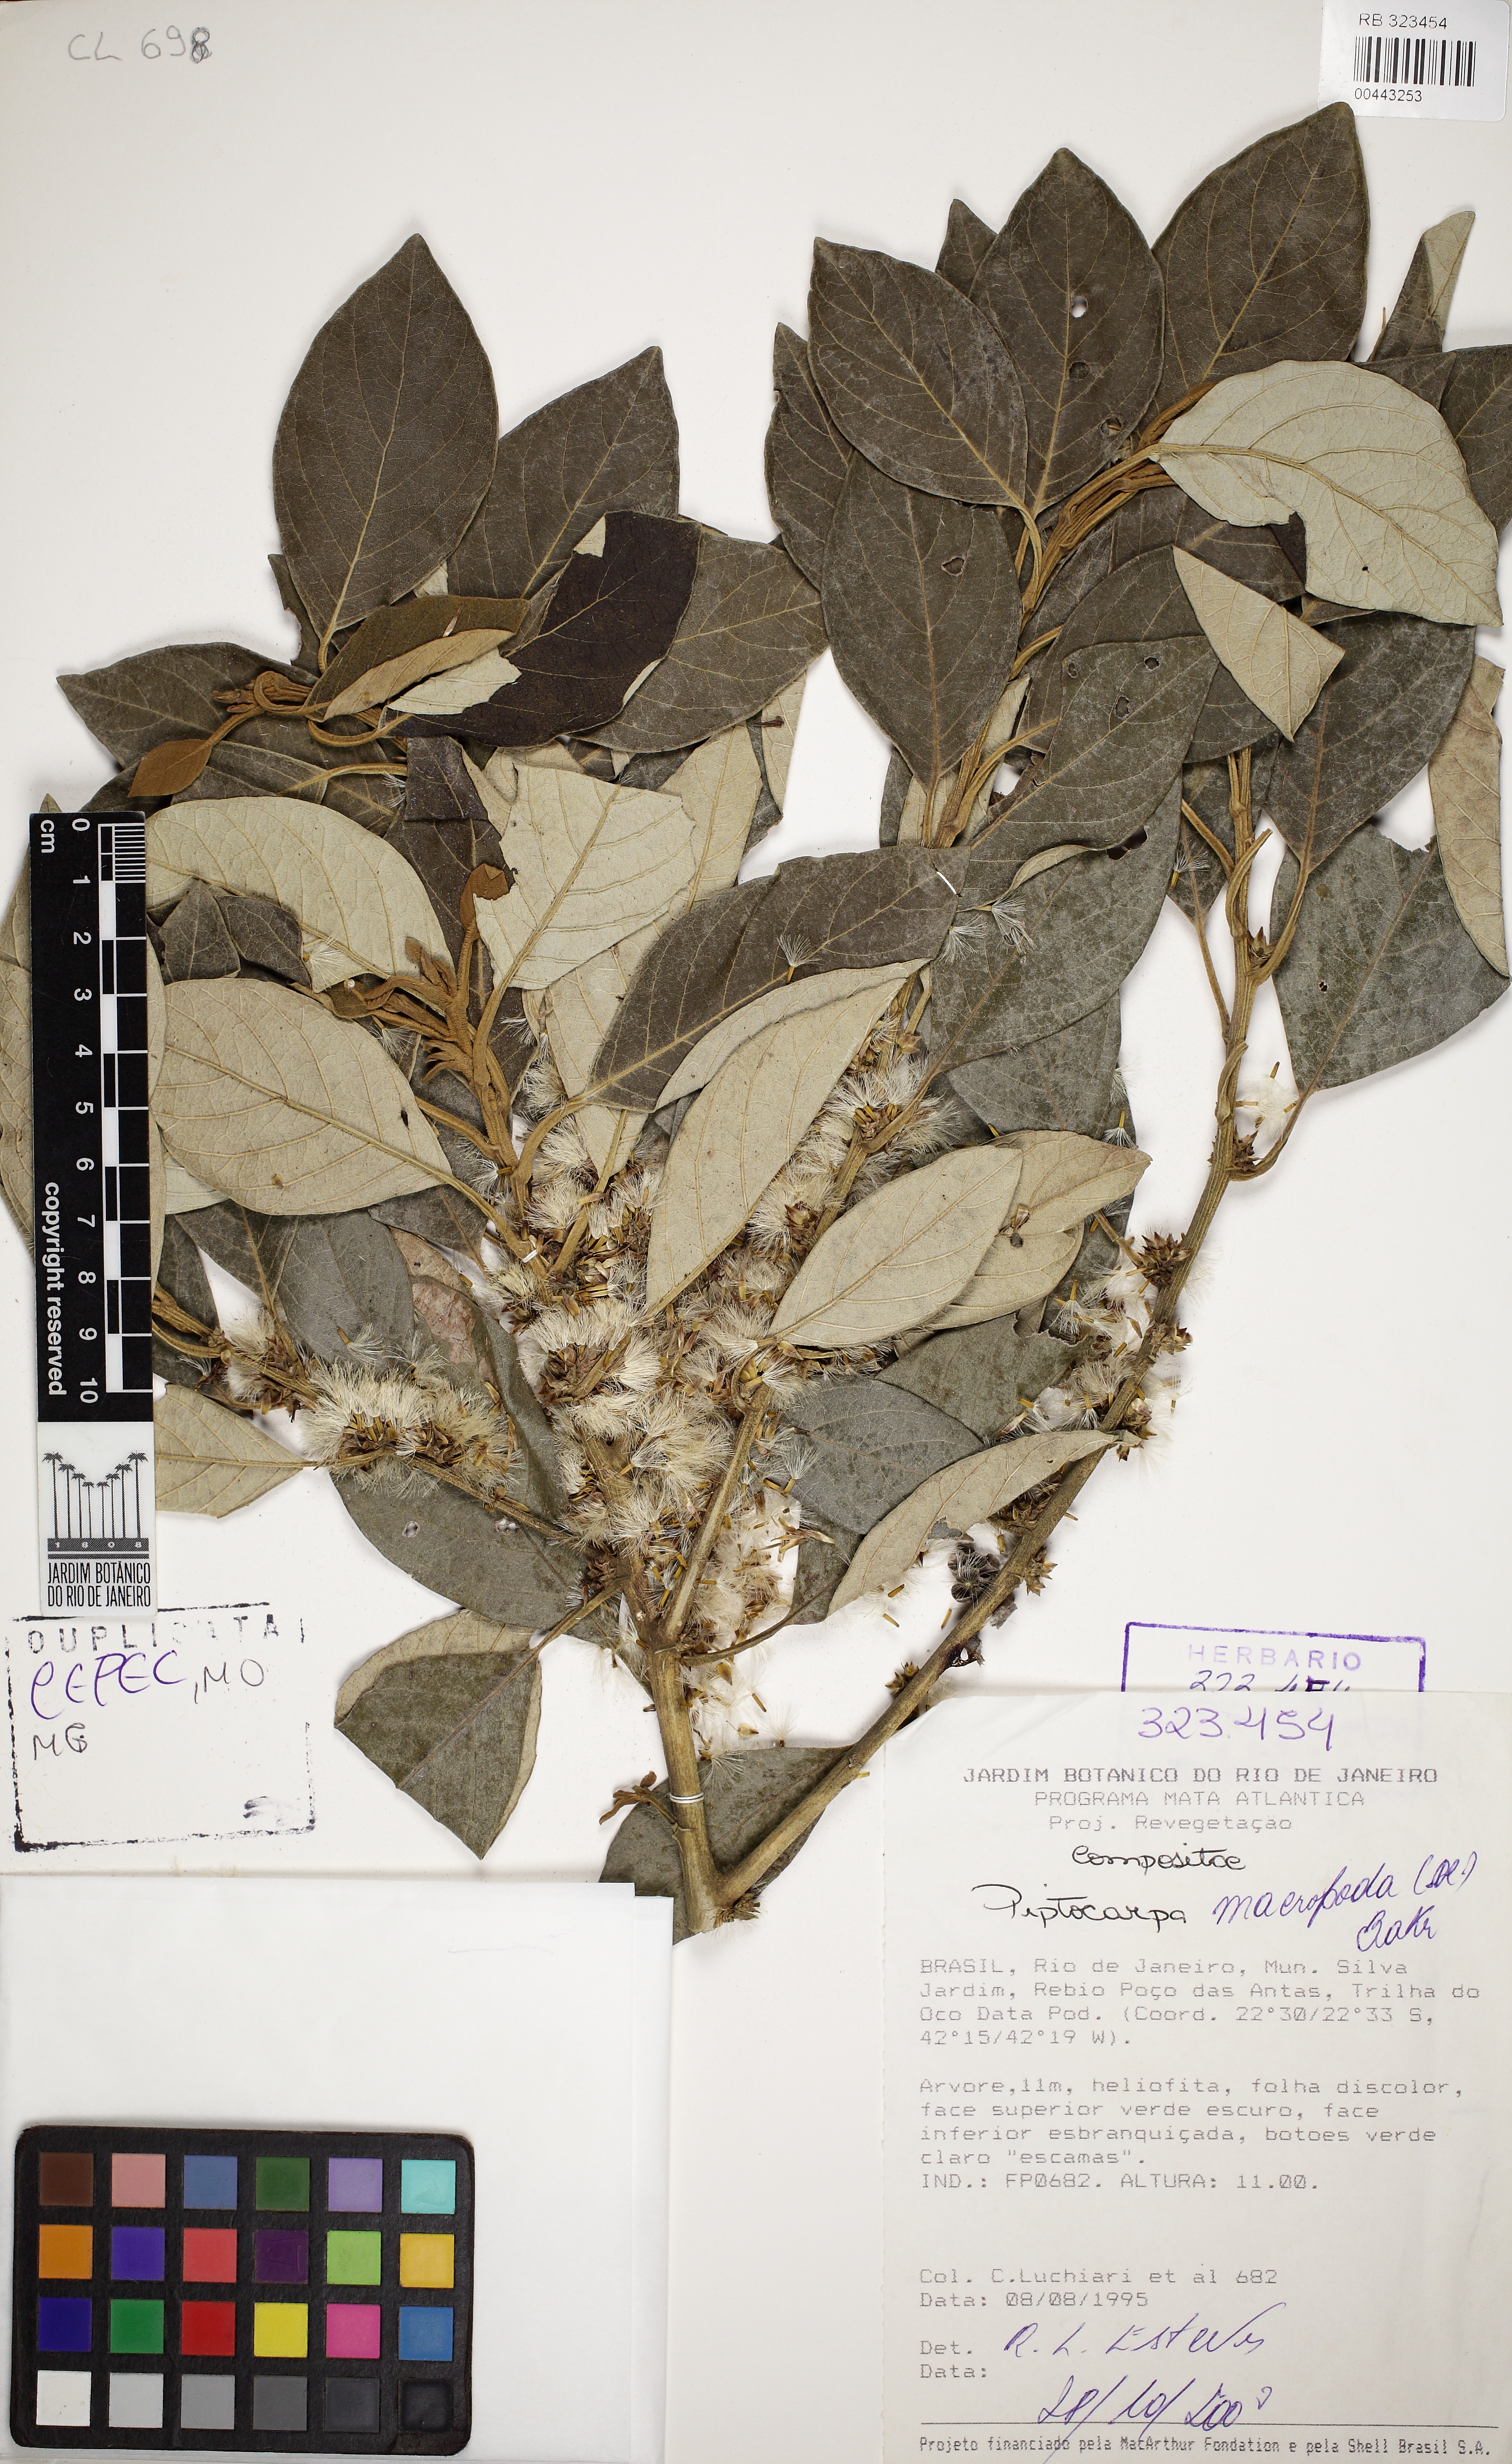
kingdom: Plantae
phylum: Tracheophyta
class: Magnoliopsida
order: Asterales
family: Asteraceae
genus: Piptocarpha
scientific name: Piptocarpha macropoda
